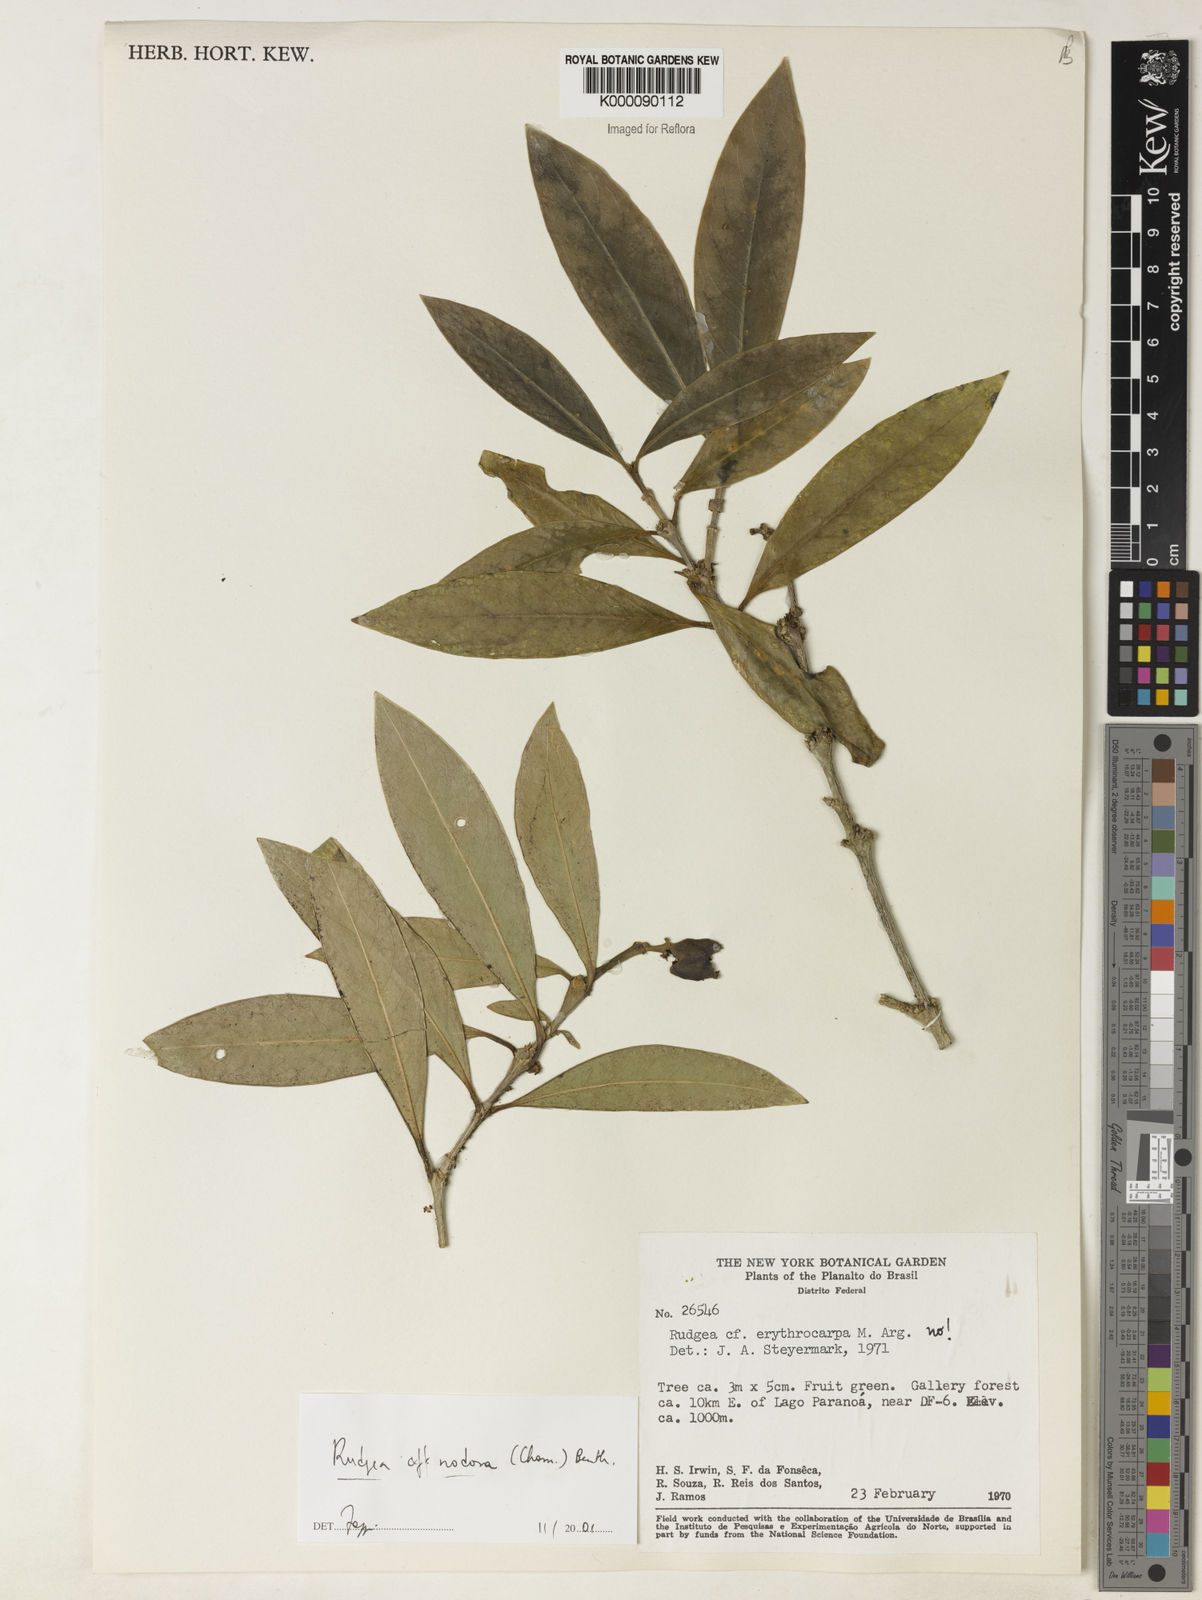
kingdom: Plantae
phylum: Tracheophyta
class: Magnoliopsida
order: Gentianales
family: Rubiaceae
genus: Rudgea
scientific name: Rudgea nodosa
